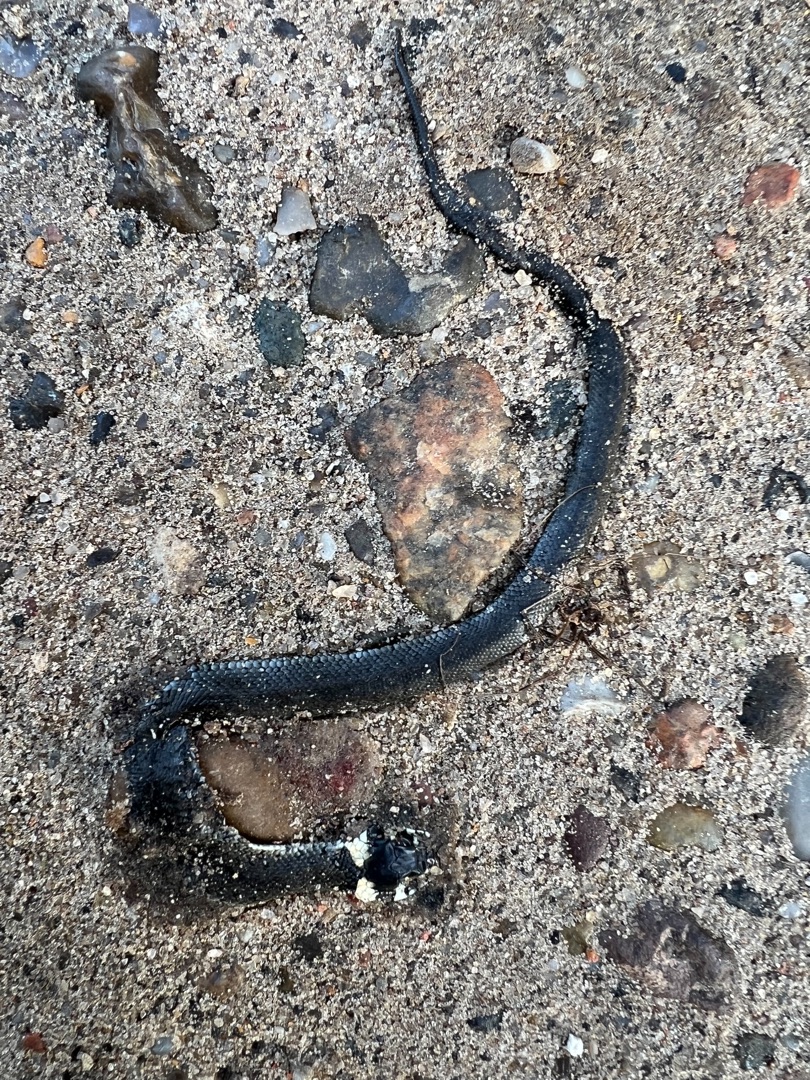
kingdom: Animalia
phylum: Chordata
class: Squamata
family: Colubridae
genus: Natrix
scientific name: Natrix natrix
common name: Snog
